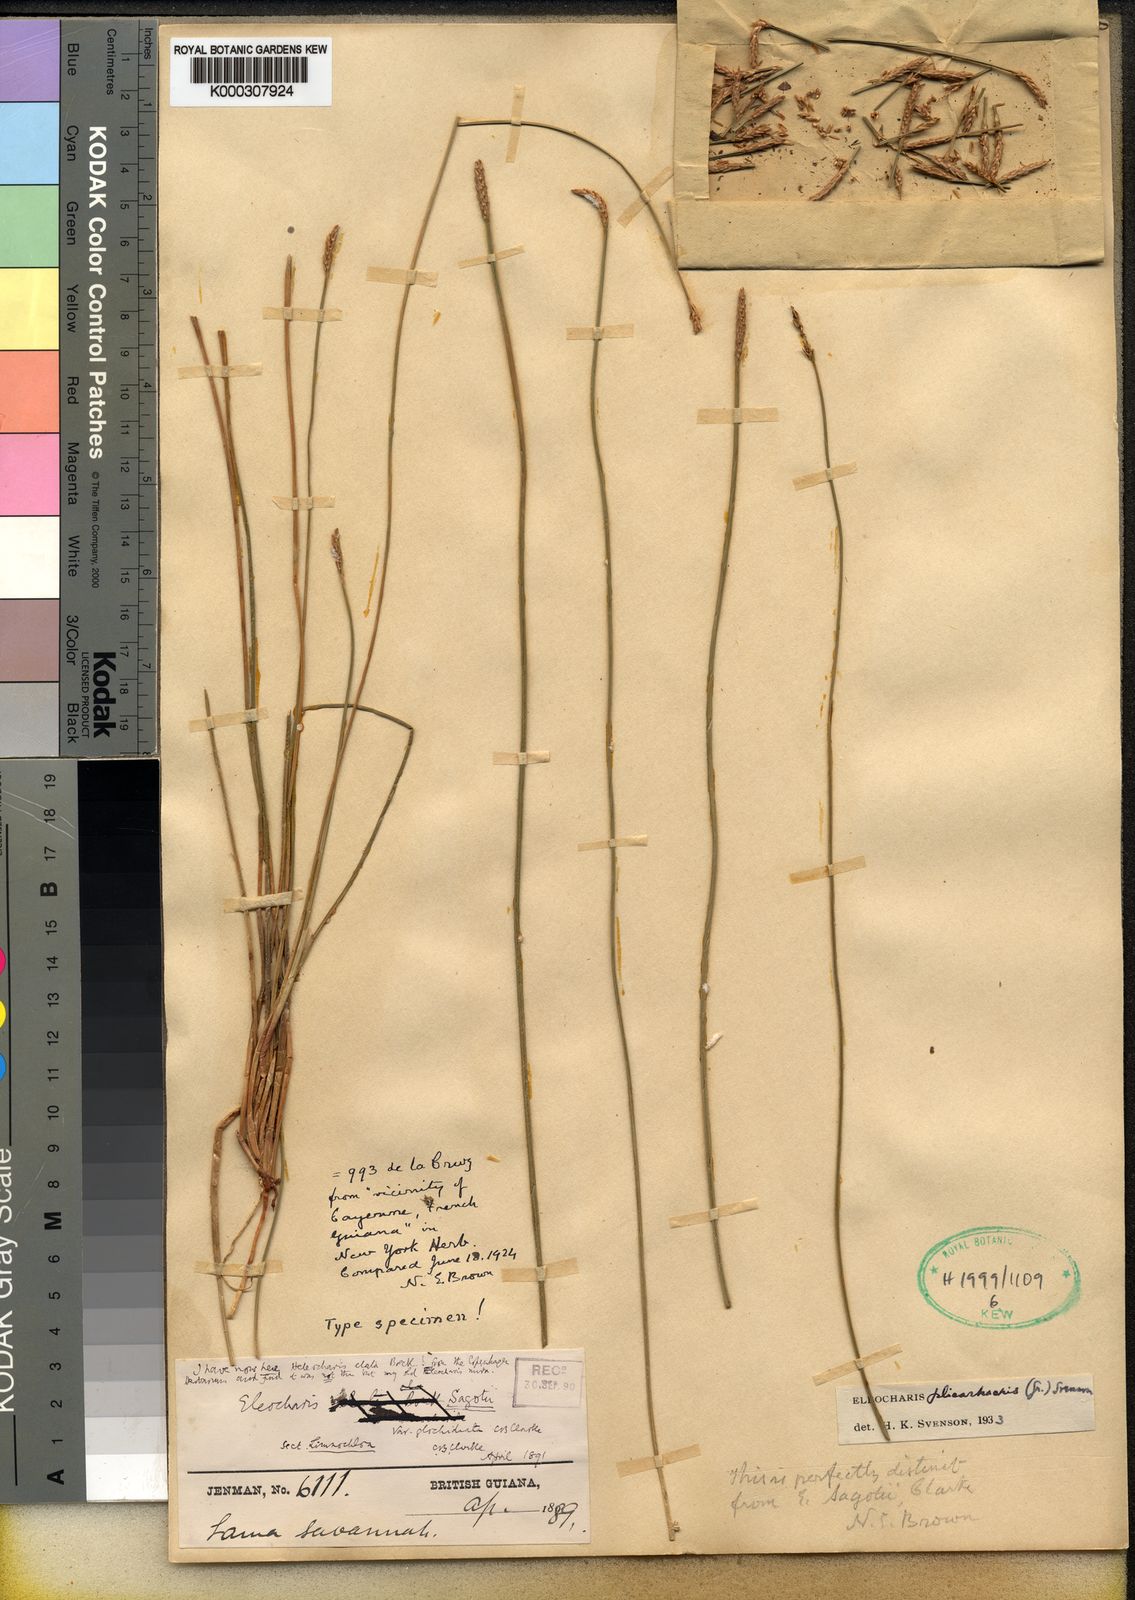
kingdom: Plantae
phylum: Tracheophyta
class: Liliopsida
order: Poales
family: Cyperaceae
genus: Eleocharis
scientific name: Eleocharis jelskiana
